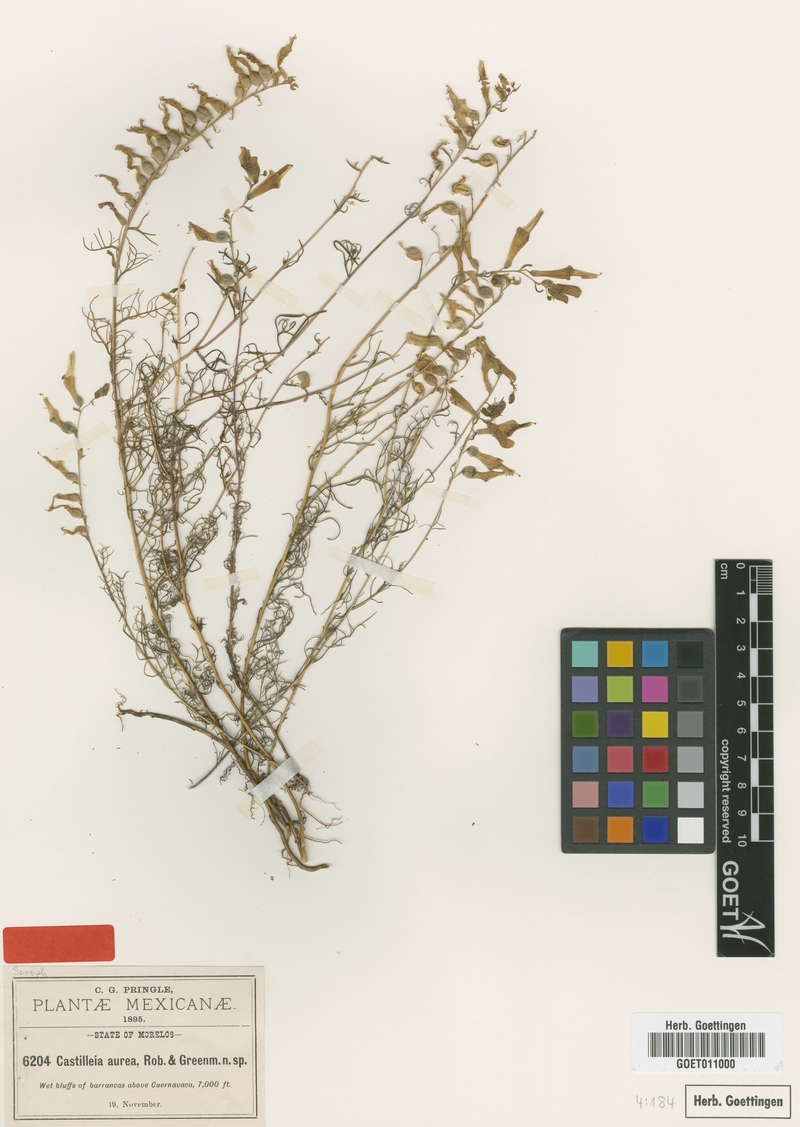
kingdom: Plantae
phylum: Tracheophyta
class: Magnoliopsida
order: Lamiales
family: Orobanchaceae
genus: Castilleja
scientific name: Castilleja aurea
